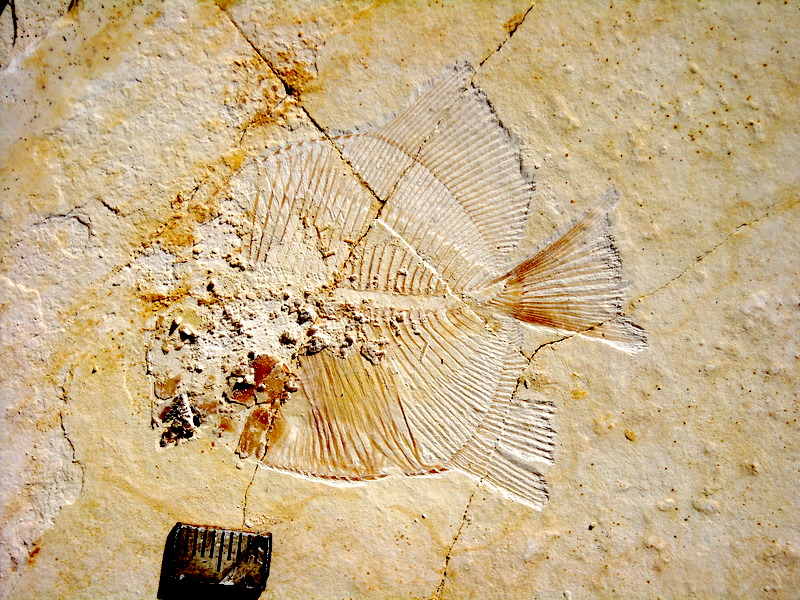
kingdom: Animalia
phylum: Chordata
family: Pycnodontidae
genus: Turbomesodon
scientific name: Turbomesodon relegans
